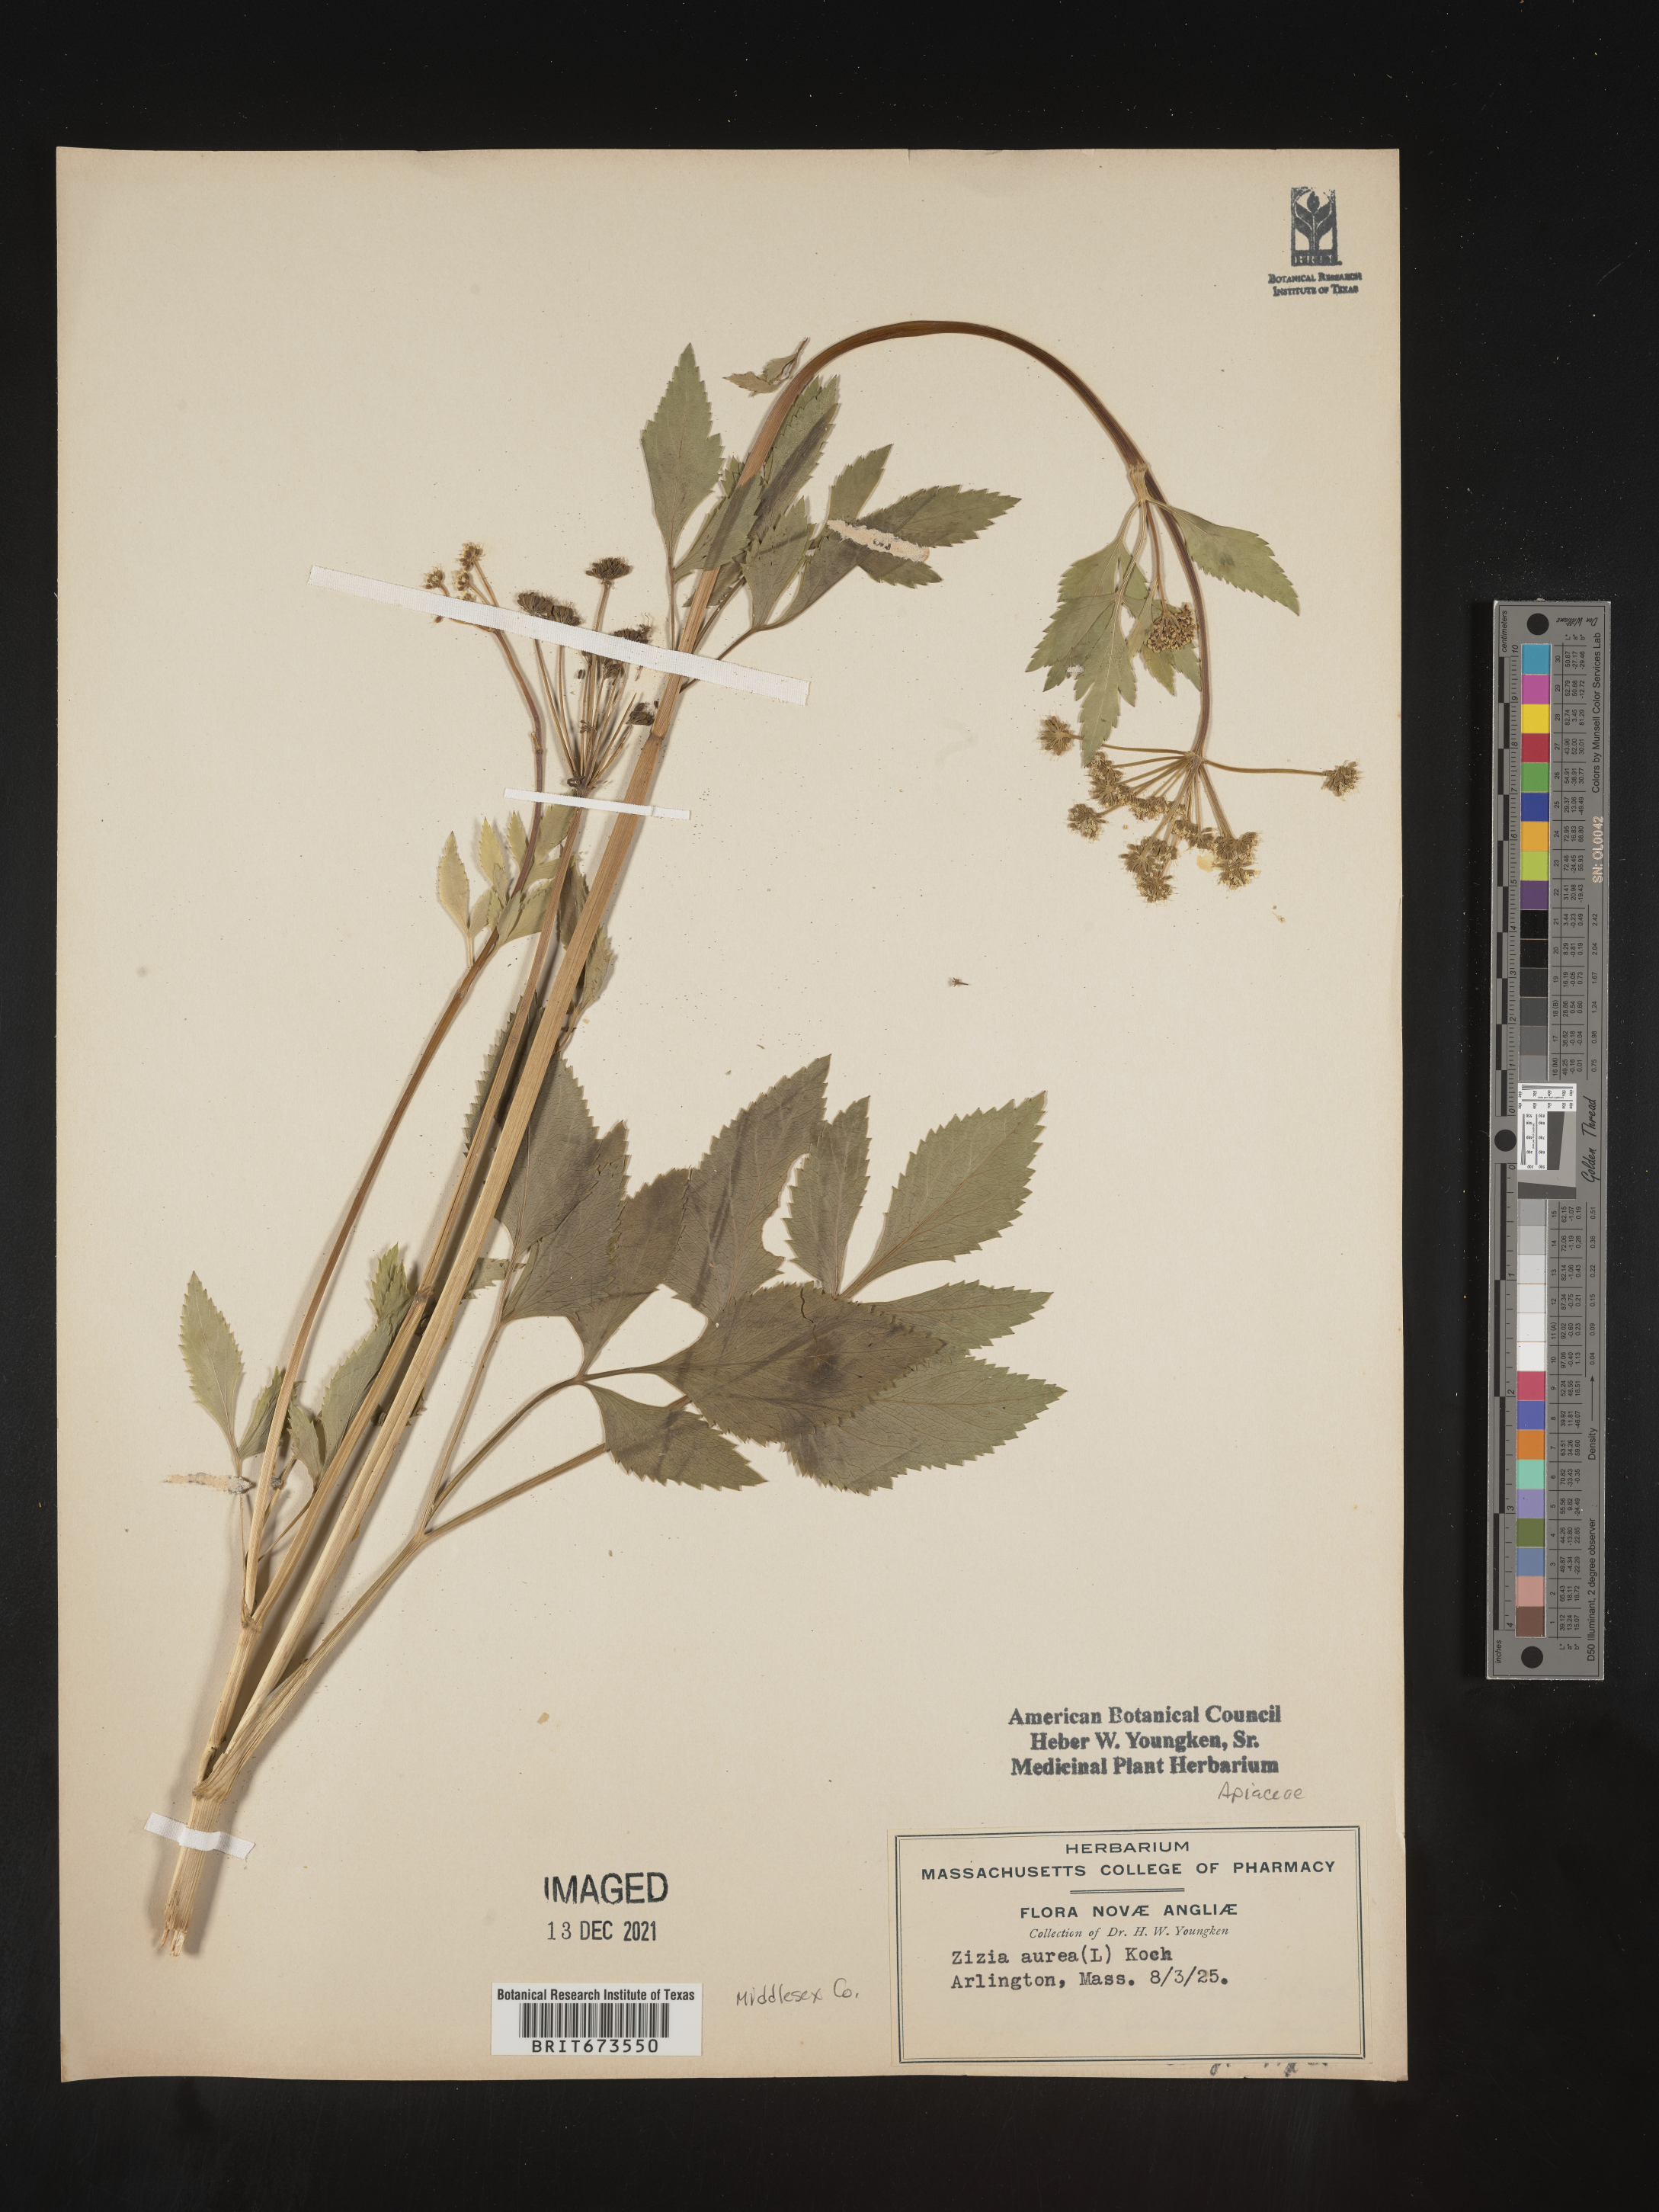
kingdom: Plantae
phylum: Tracheophyta
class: Magnoliopsida
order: Apiales
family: Apiaceae
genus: Zizia
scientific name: Zizia aurea
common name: Golden alexanders
